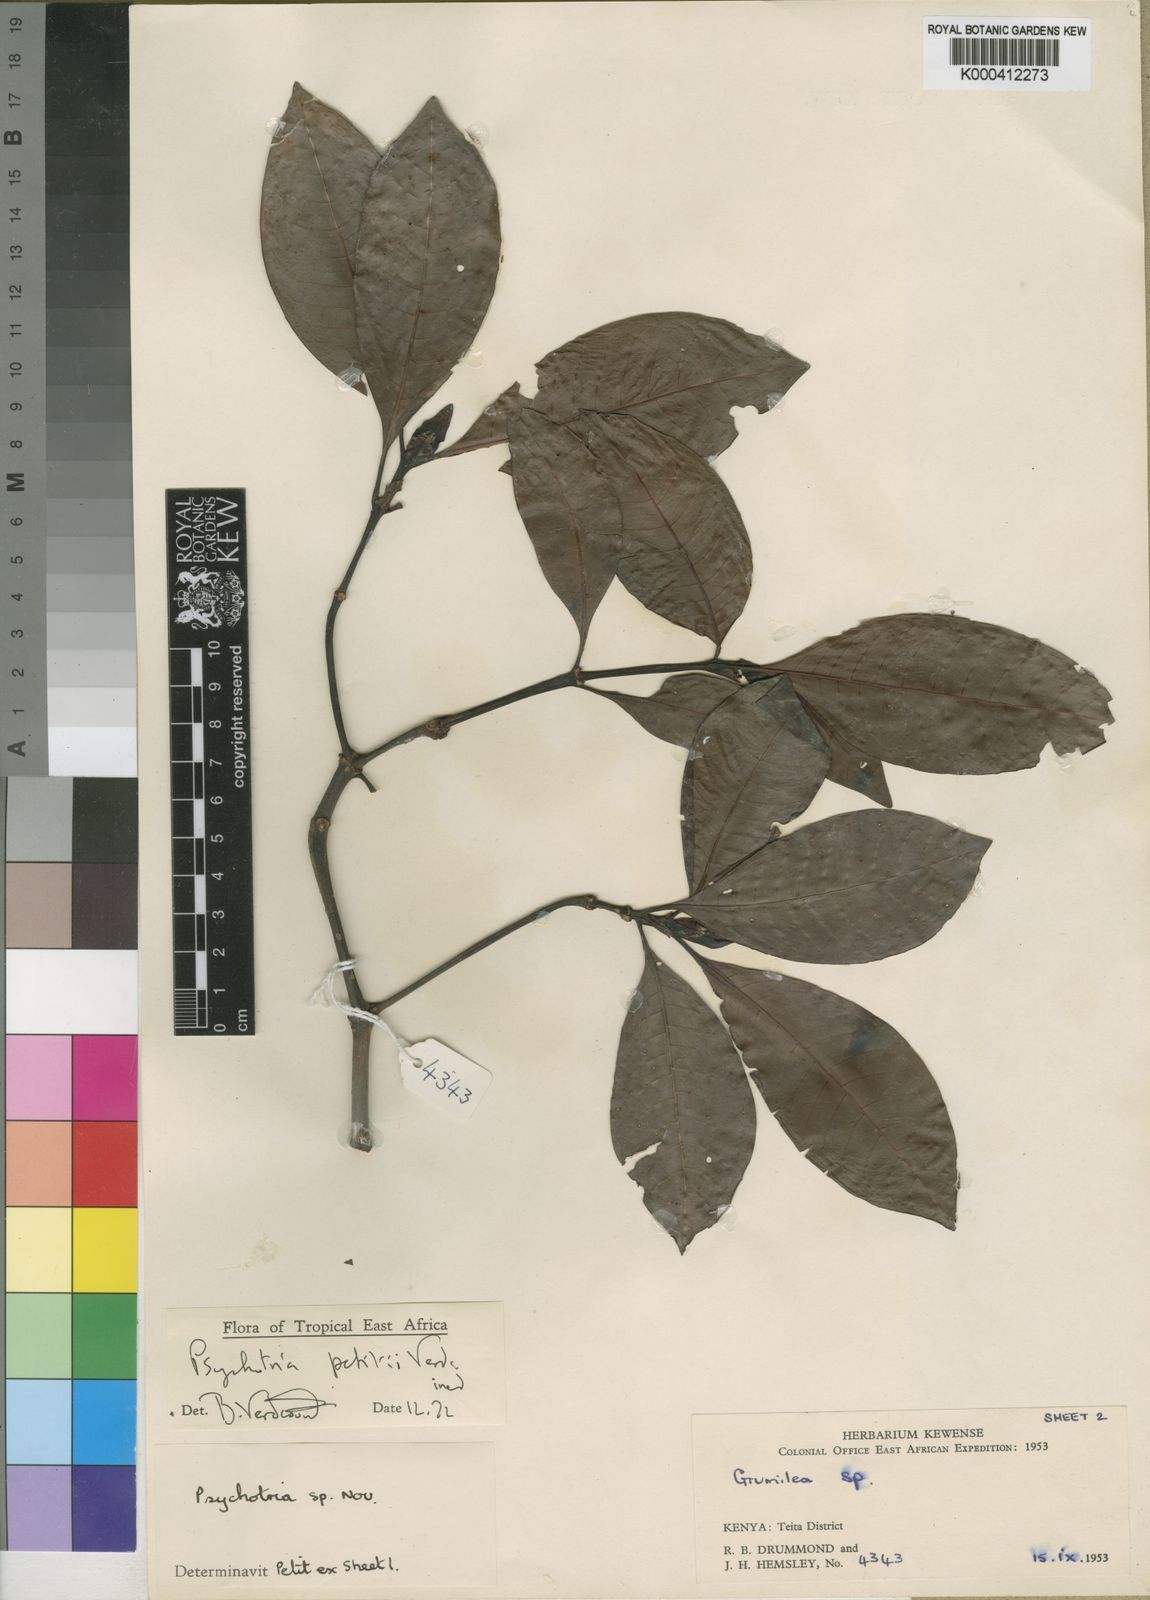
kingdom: Plantae
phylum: Tracheophyta
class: Magnoliopsida
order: Gentianales
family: Rubiaceae
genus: Psychotria
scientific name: Psychotria petitii
